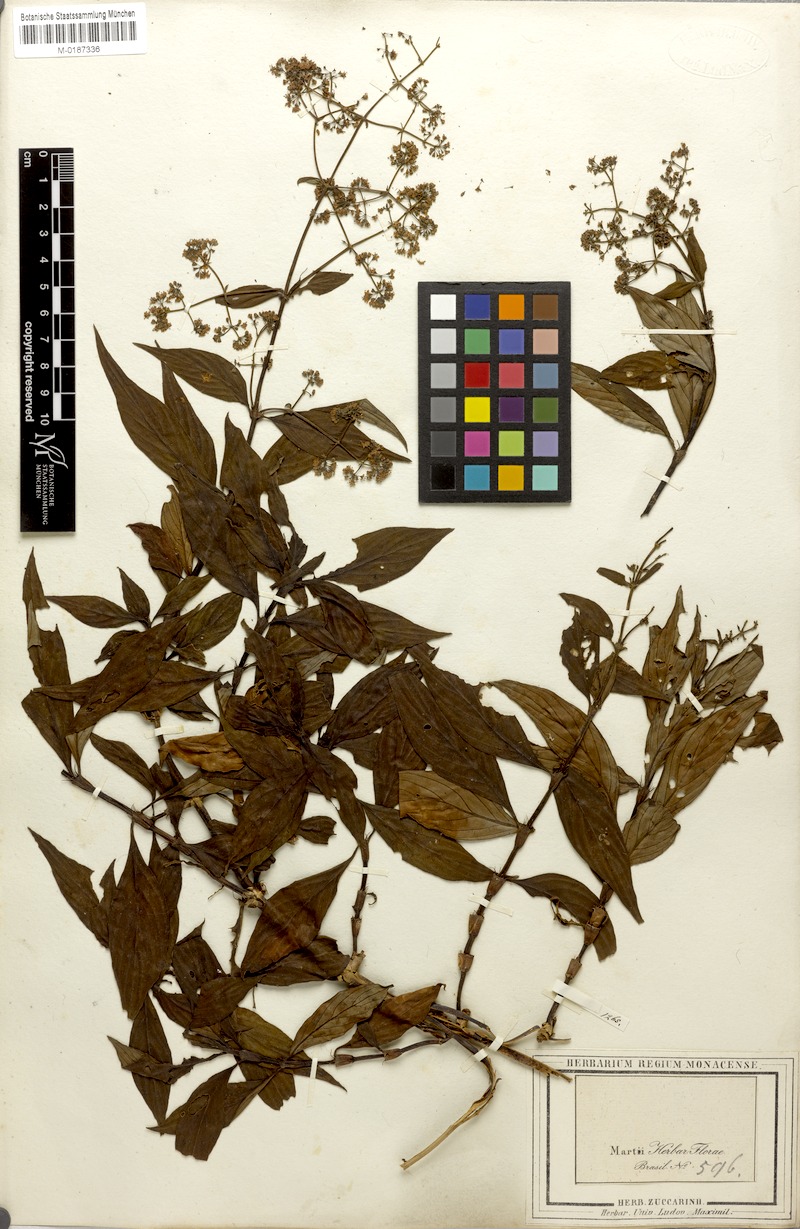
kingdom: Plantae
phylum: Tracheophyta
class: Magnoliopsida
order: Gentianales
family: Rubiaceae
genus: Emmeorhiza
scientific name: Emmeorhiza umbellata
